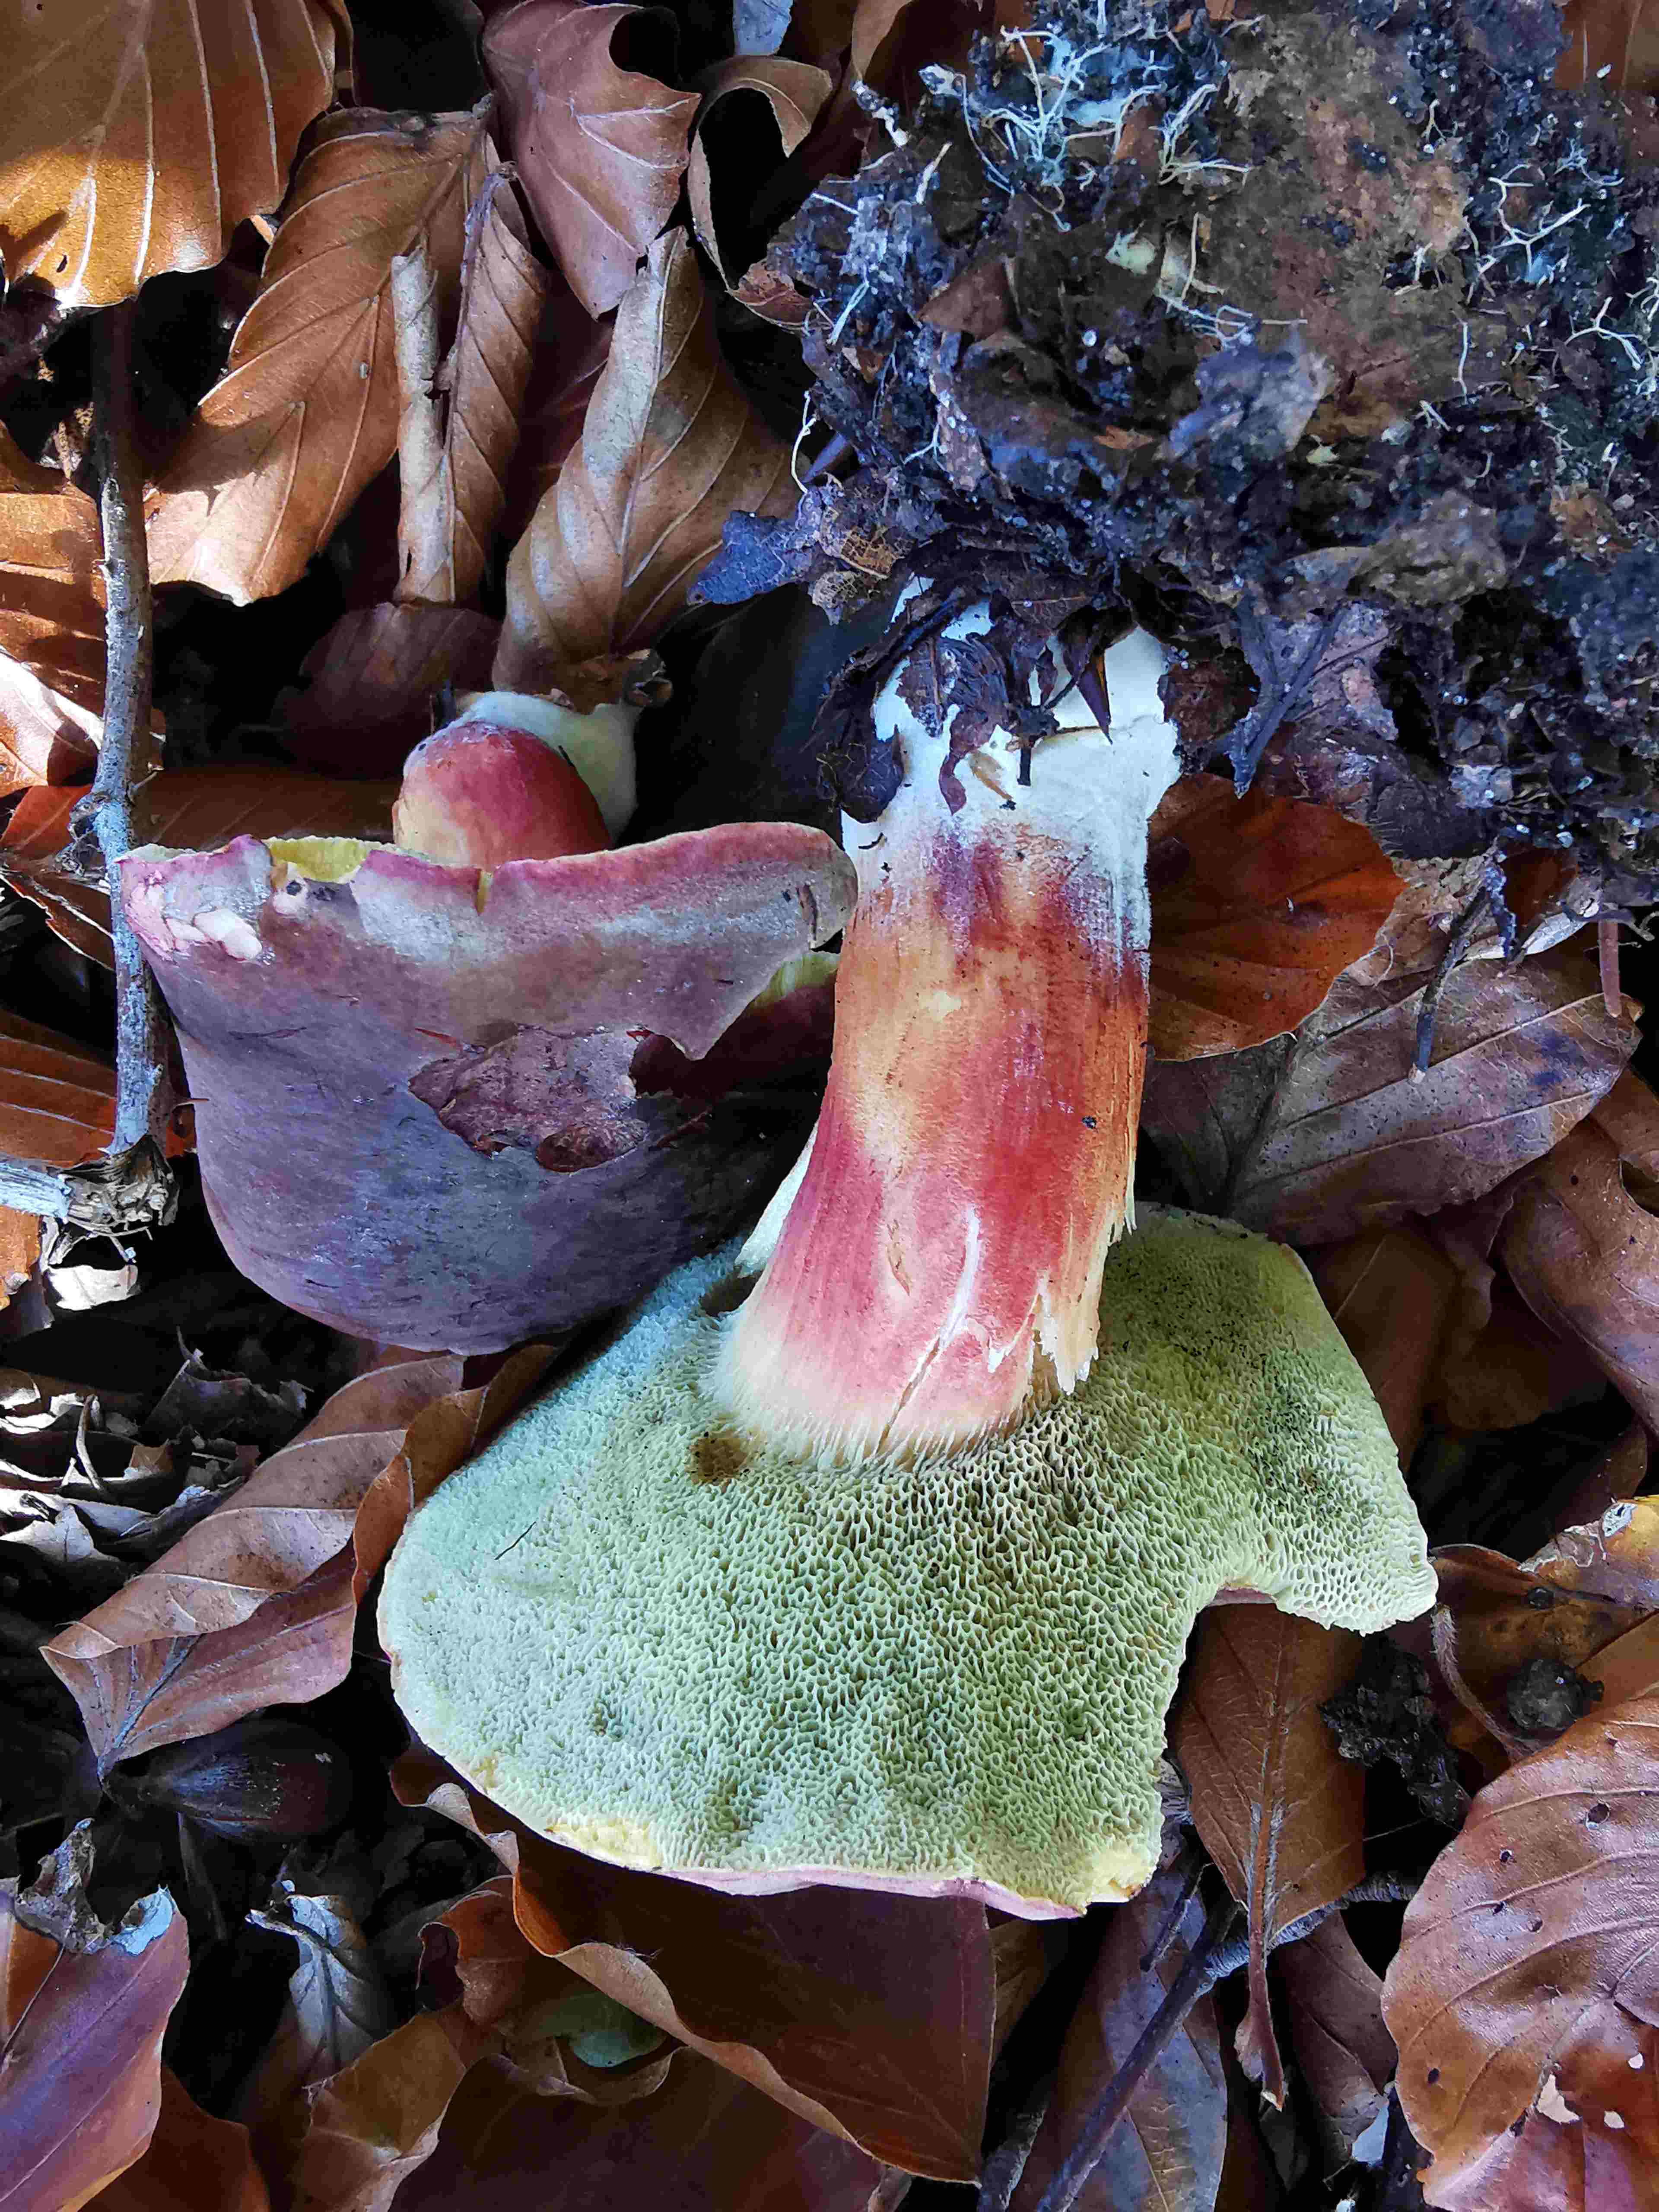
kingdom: Fungi
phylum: Basidiomycota
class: Agaricomycetes
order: Boletales
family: Boletaceae
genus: Xerocomellus
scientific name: Xerocomellus pruinatus
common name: dugget rørhat
